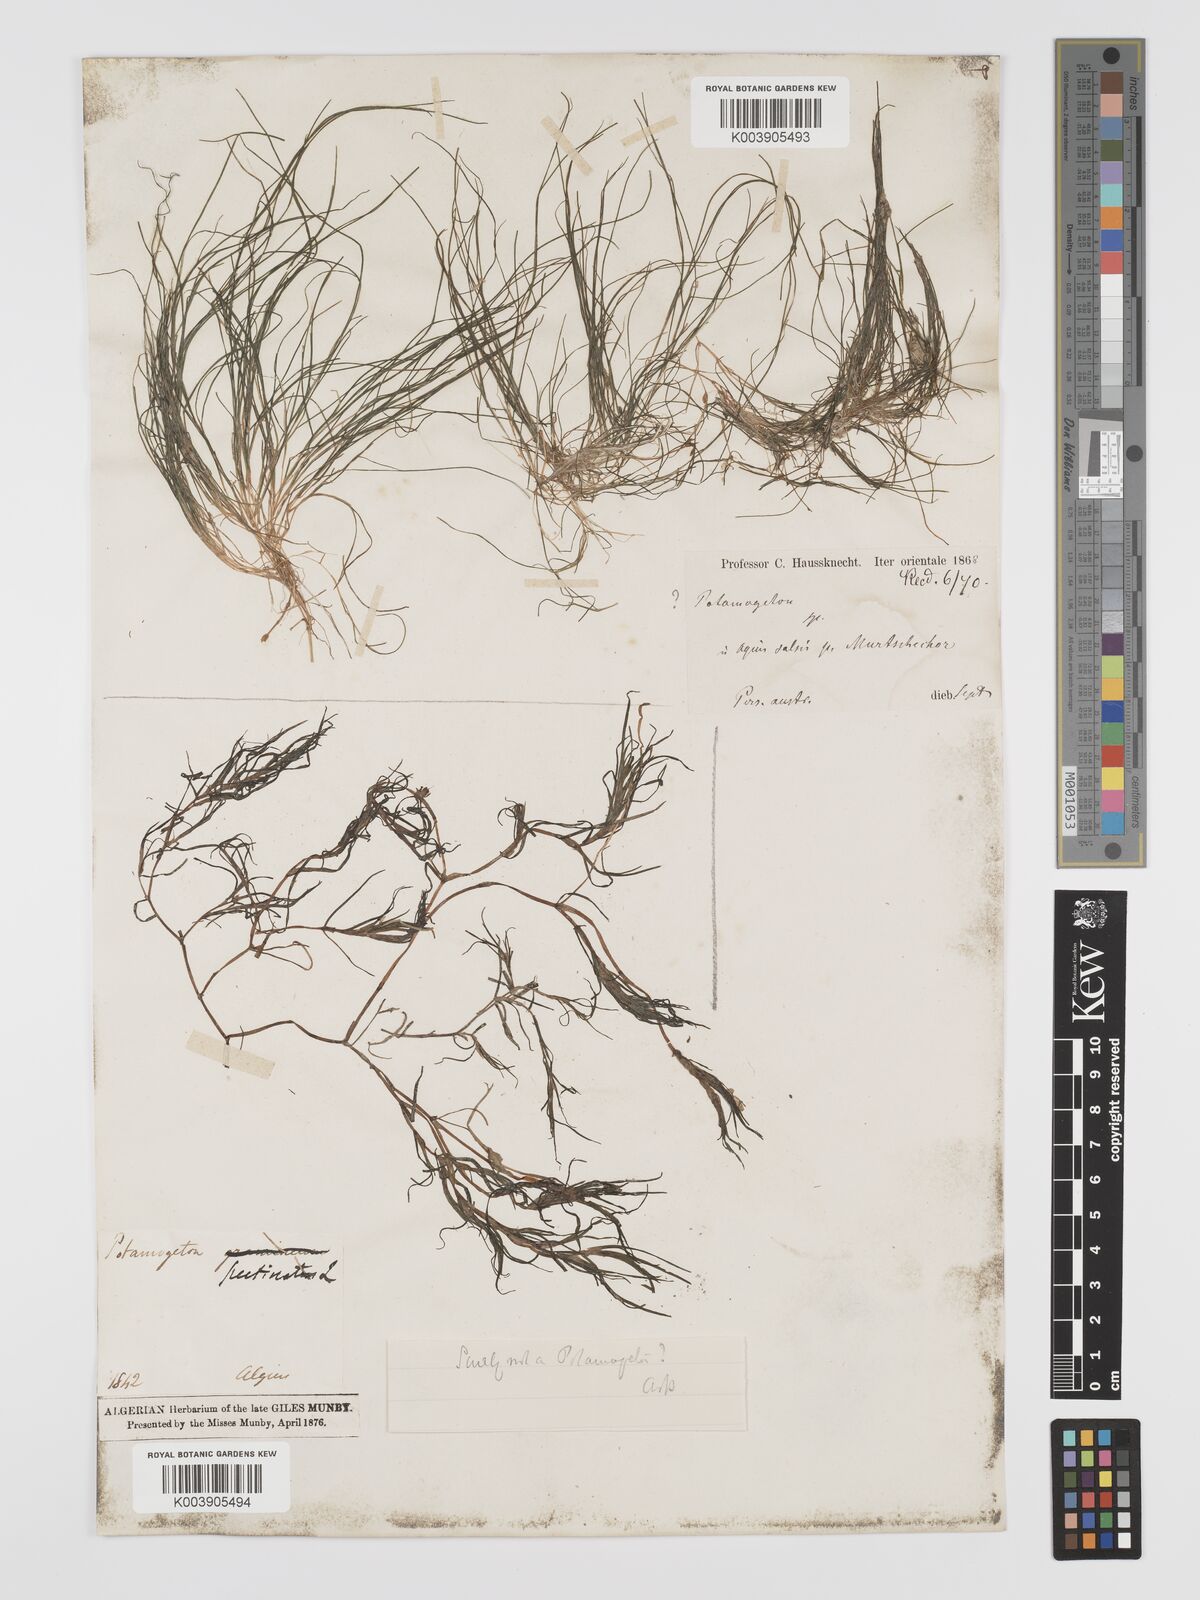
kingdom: Plantae
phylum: Tracheophyta
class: Liliopsida
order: Alismatales
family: Potamogetonaceae
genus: Stuckenia
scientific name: Stuckenia pectinata
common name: Sago pondweed
